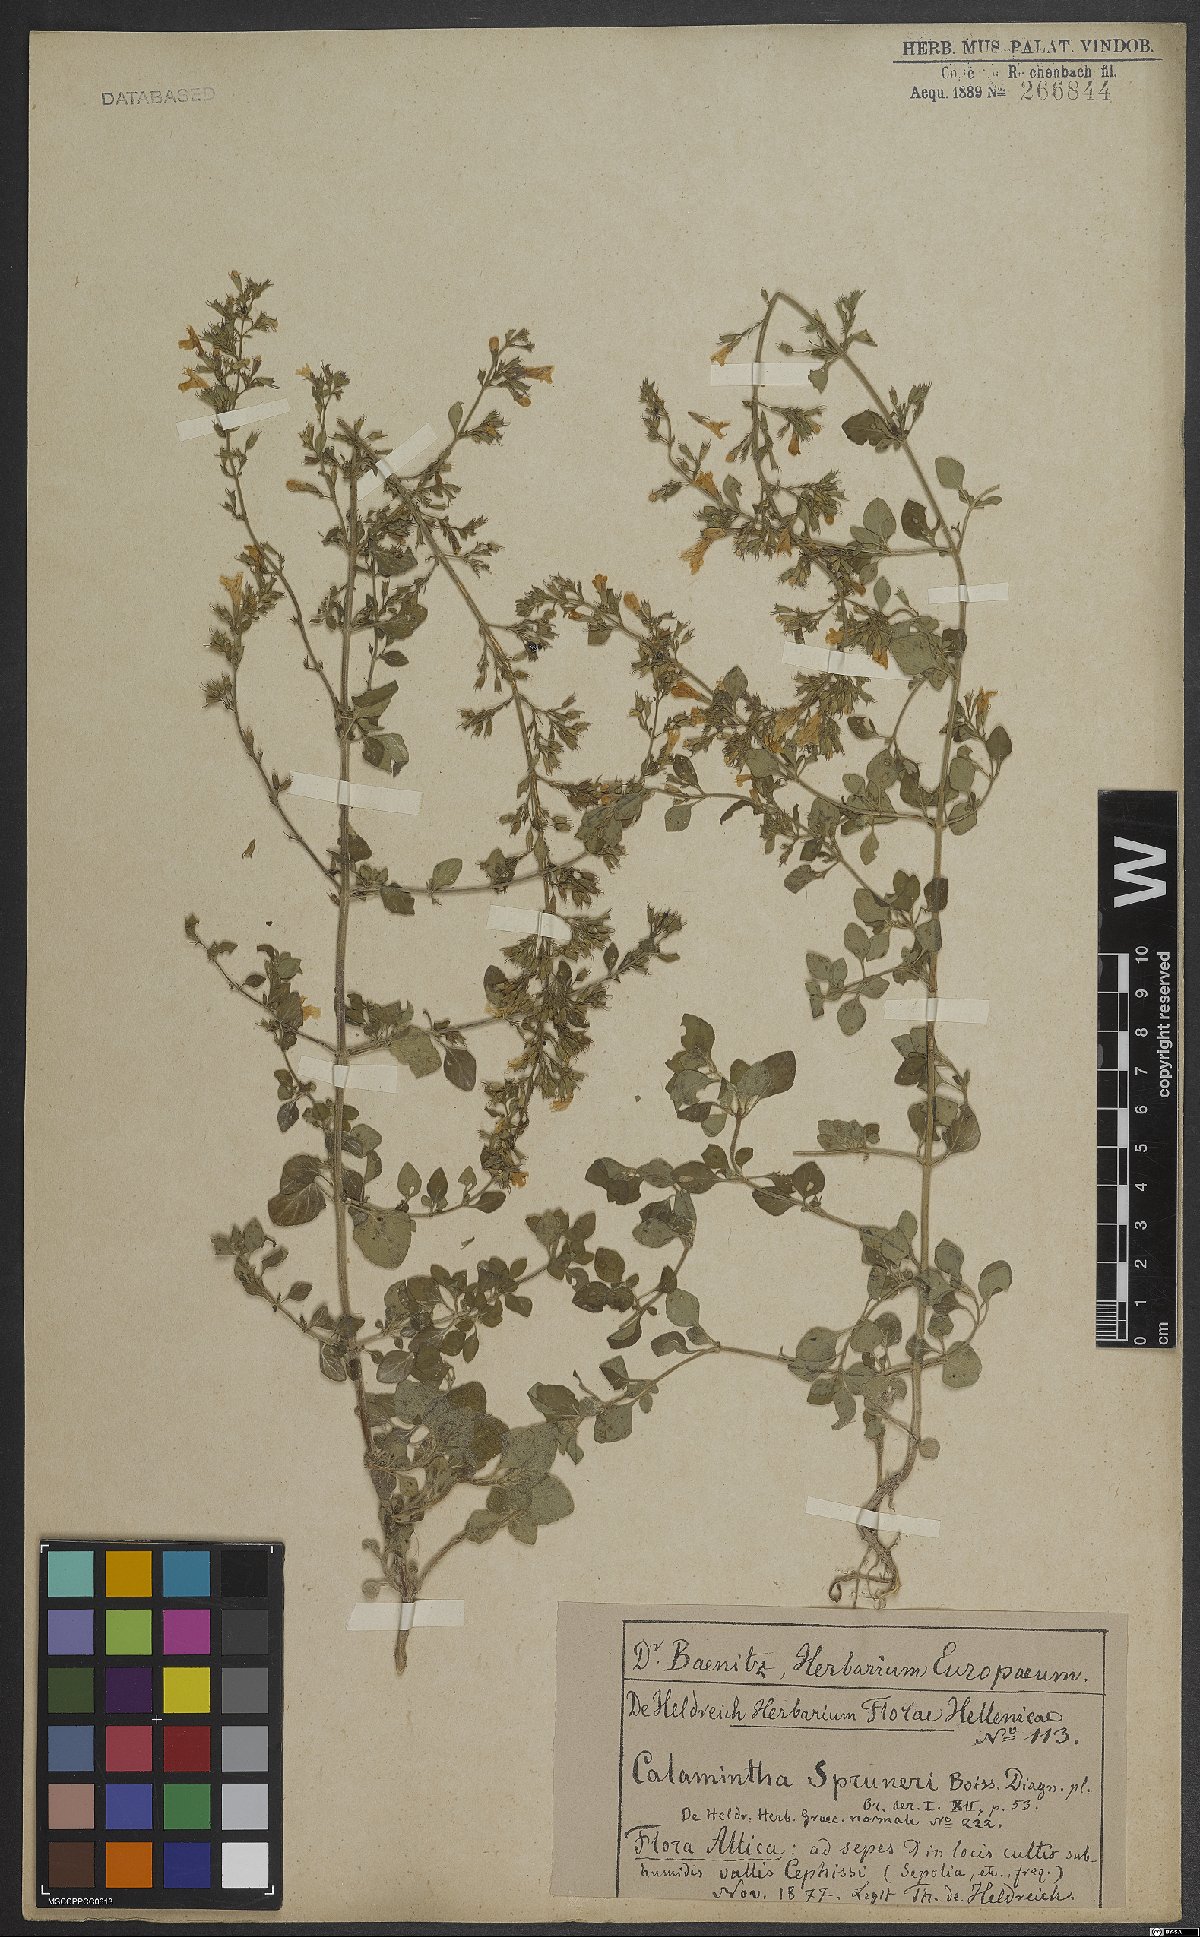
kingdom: Plantae
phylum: Tracheophyta
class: Magnoliopsida
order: Lamiales
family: Lamiaceae
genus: Clinopodium
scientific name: Clinopodium nepeta
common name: Lesser calamint
